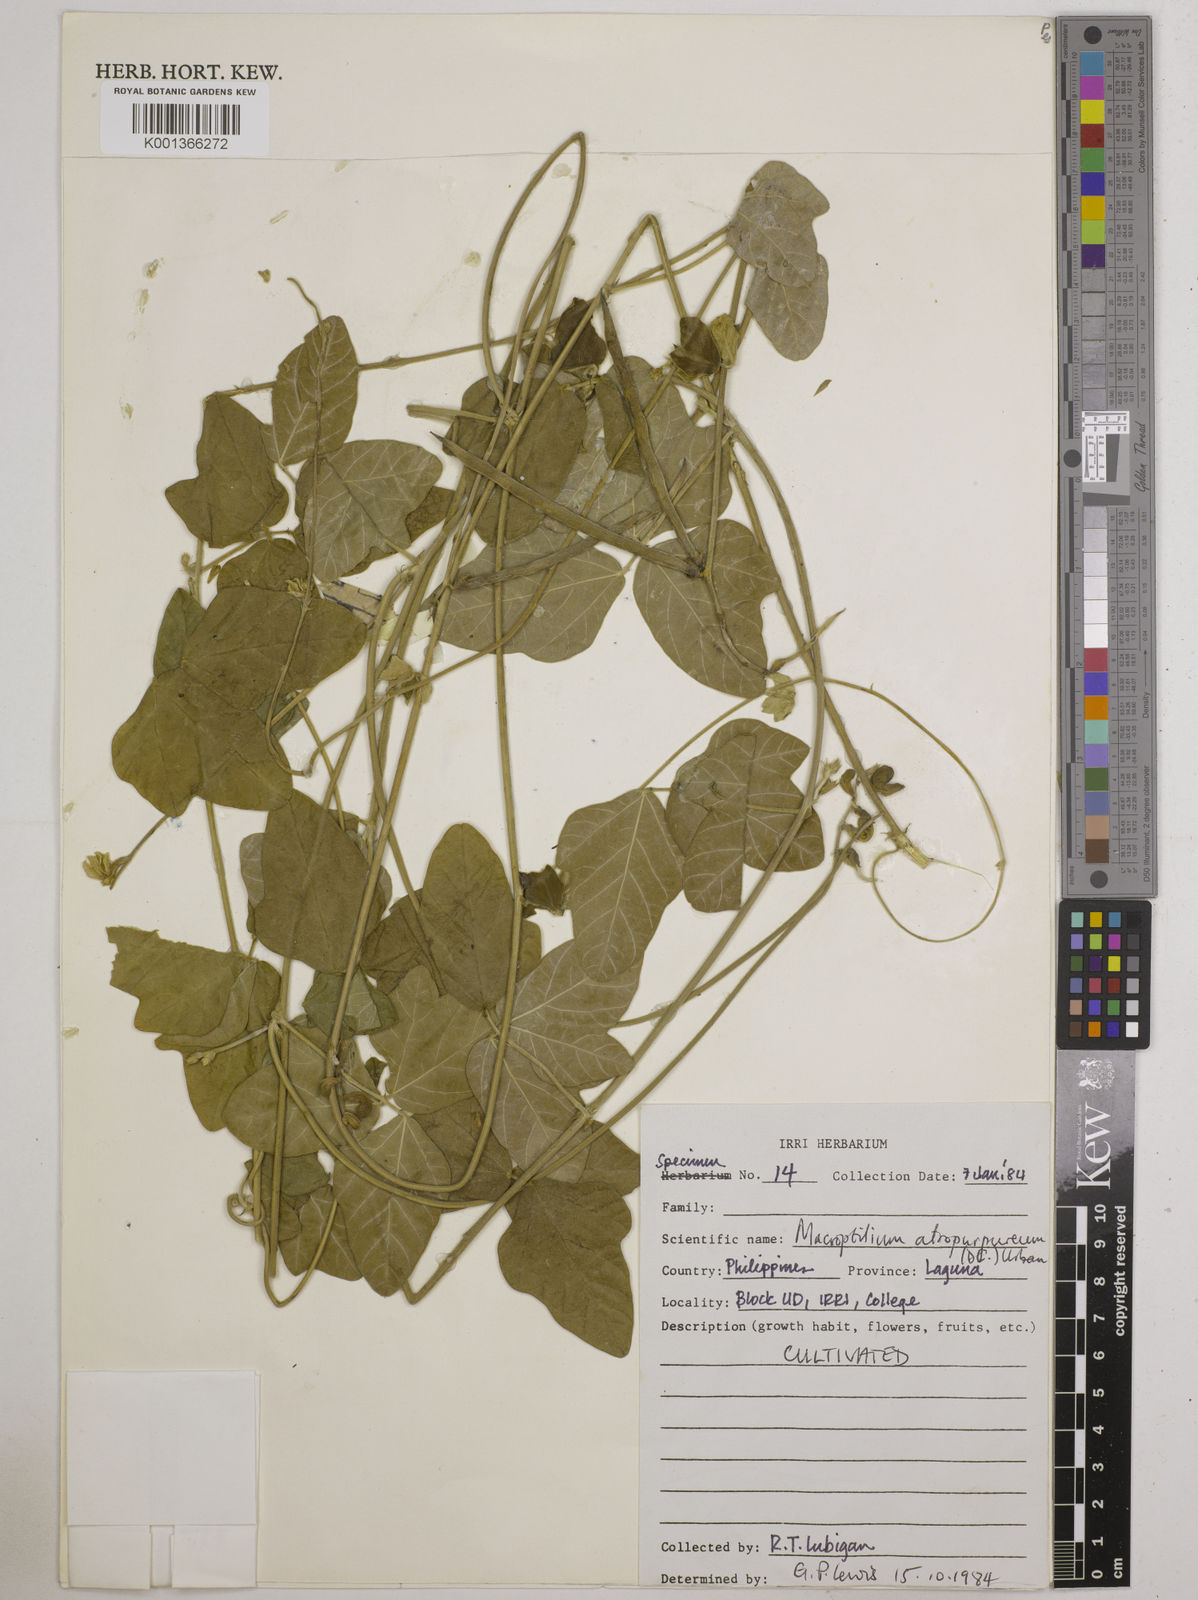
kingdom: Plantae
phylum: Tracheophyta
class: Magnoliopsida
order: Fabales
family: Fabaceae
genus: Macroptilium
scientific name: Macroptilium atropurpureum
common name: Purple bushbean
